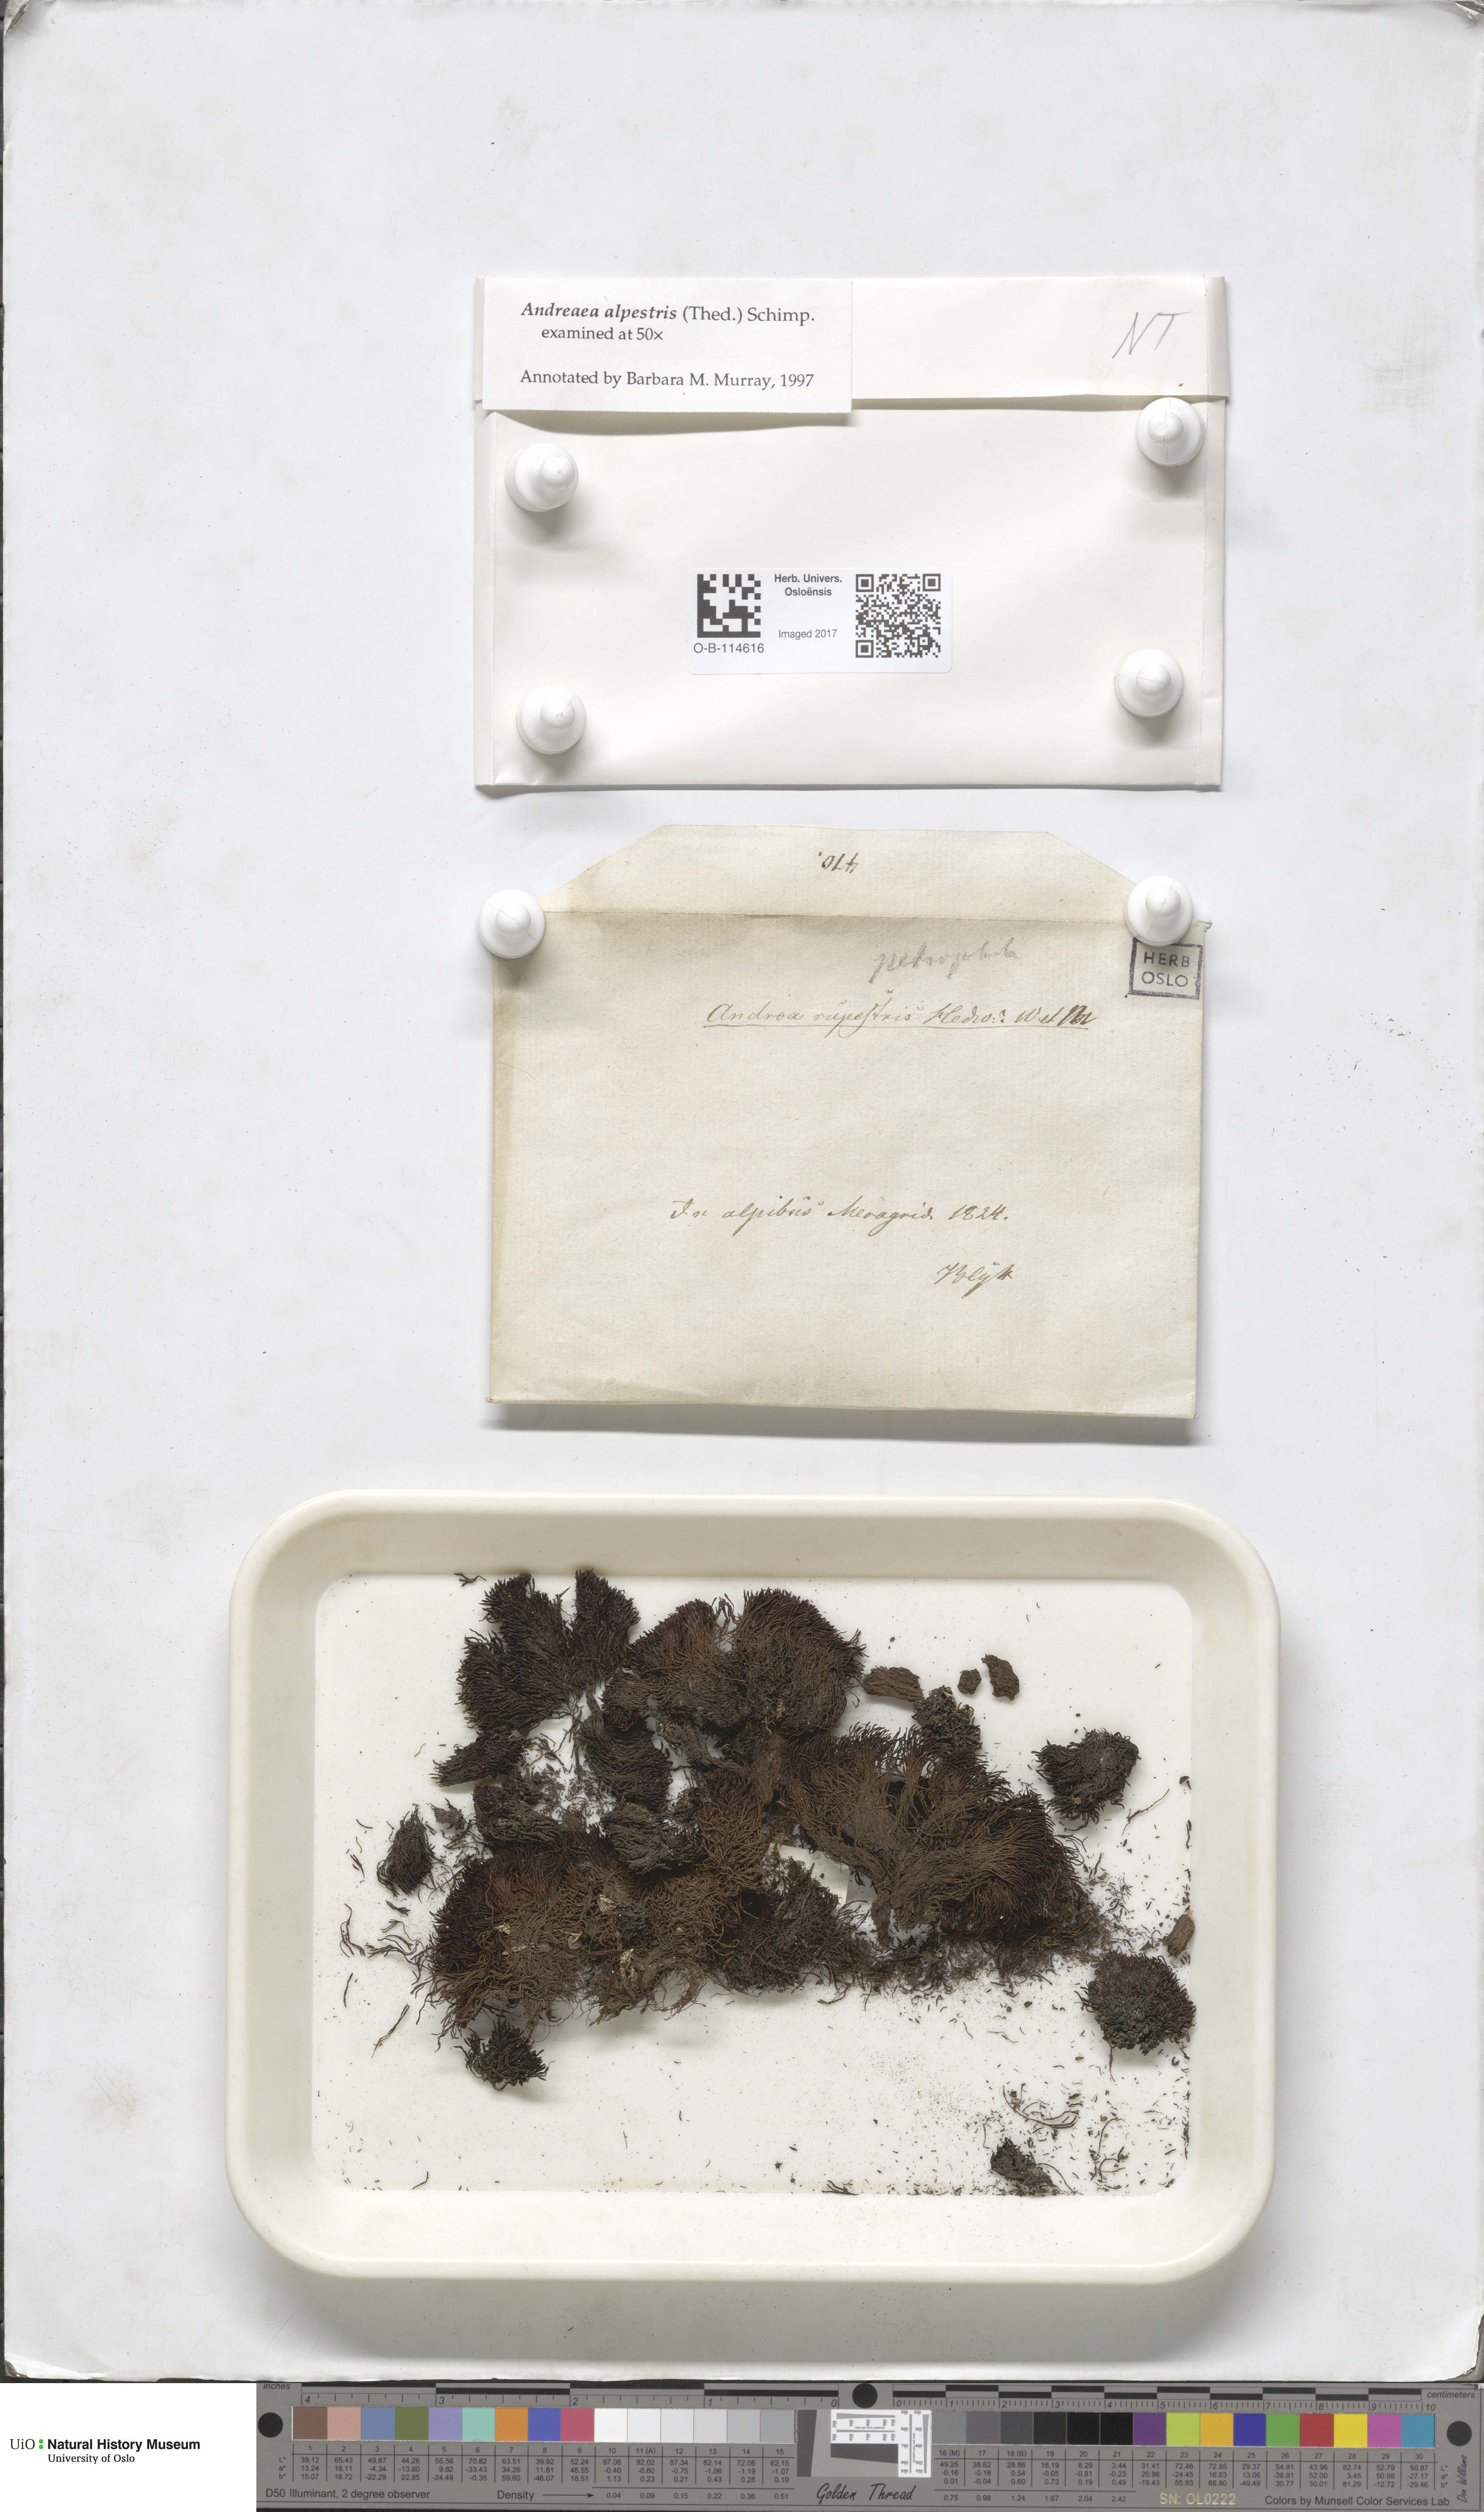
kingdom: Plantae
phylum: Bryophyta
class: Andreaeopsida
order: Andreaeales
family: Andreaeaceae
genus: Andreaea
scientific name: Andreaea alpestris
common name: Slender rock-moss
